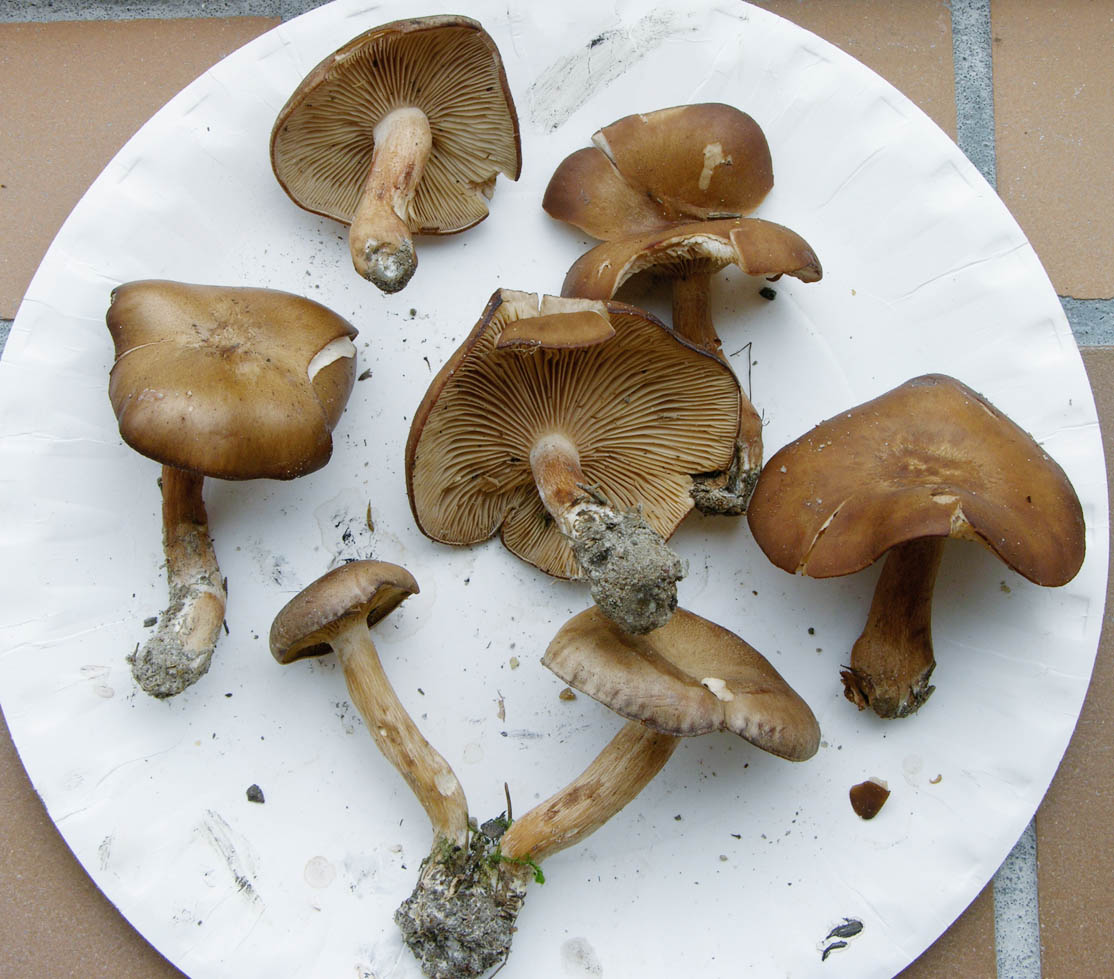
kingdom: Fungi
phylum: Basidiomycota
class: Agaricomycetes
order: Agaricales
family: Tricholomataceae
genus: Lepista
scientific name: Lepista ovispora
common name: slank hekseringshat
